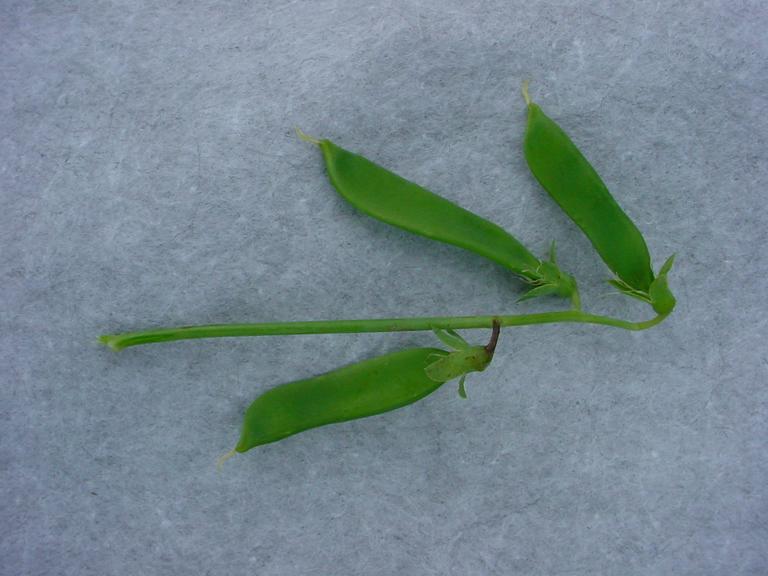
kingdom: Plantae
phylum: Tracheophyta
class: Magnoliopsida
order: Fabales
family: Fabaceae
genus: Lathyrus
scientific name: Lathyrus oleraceus
